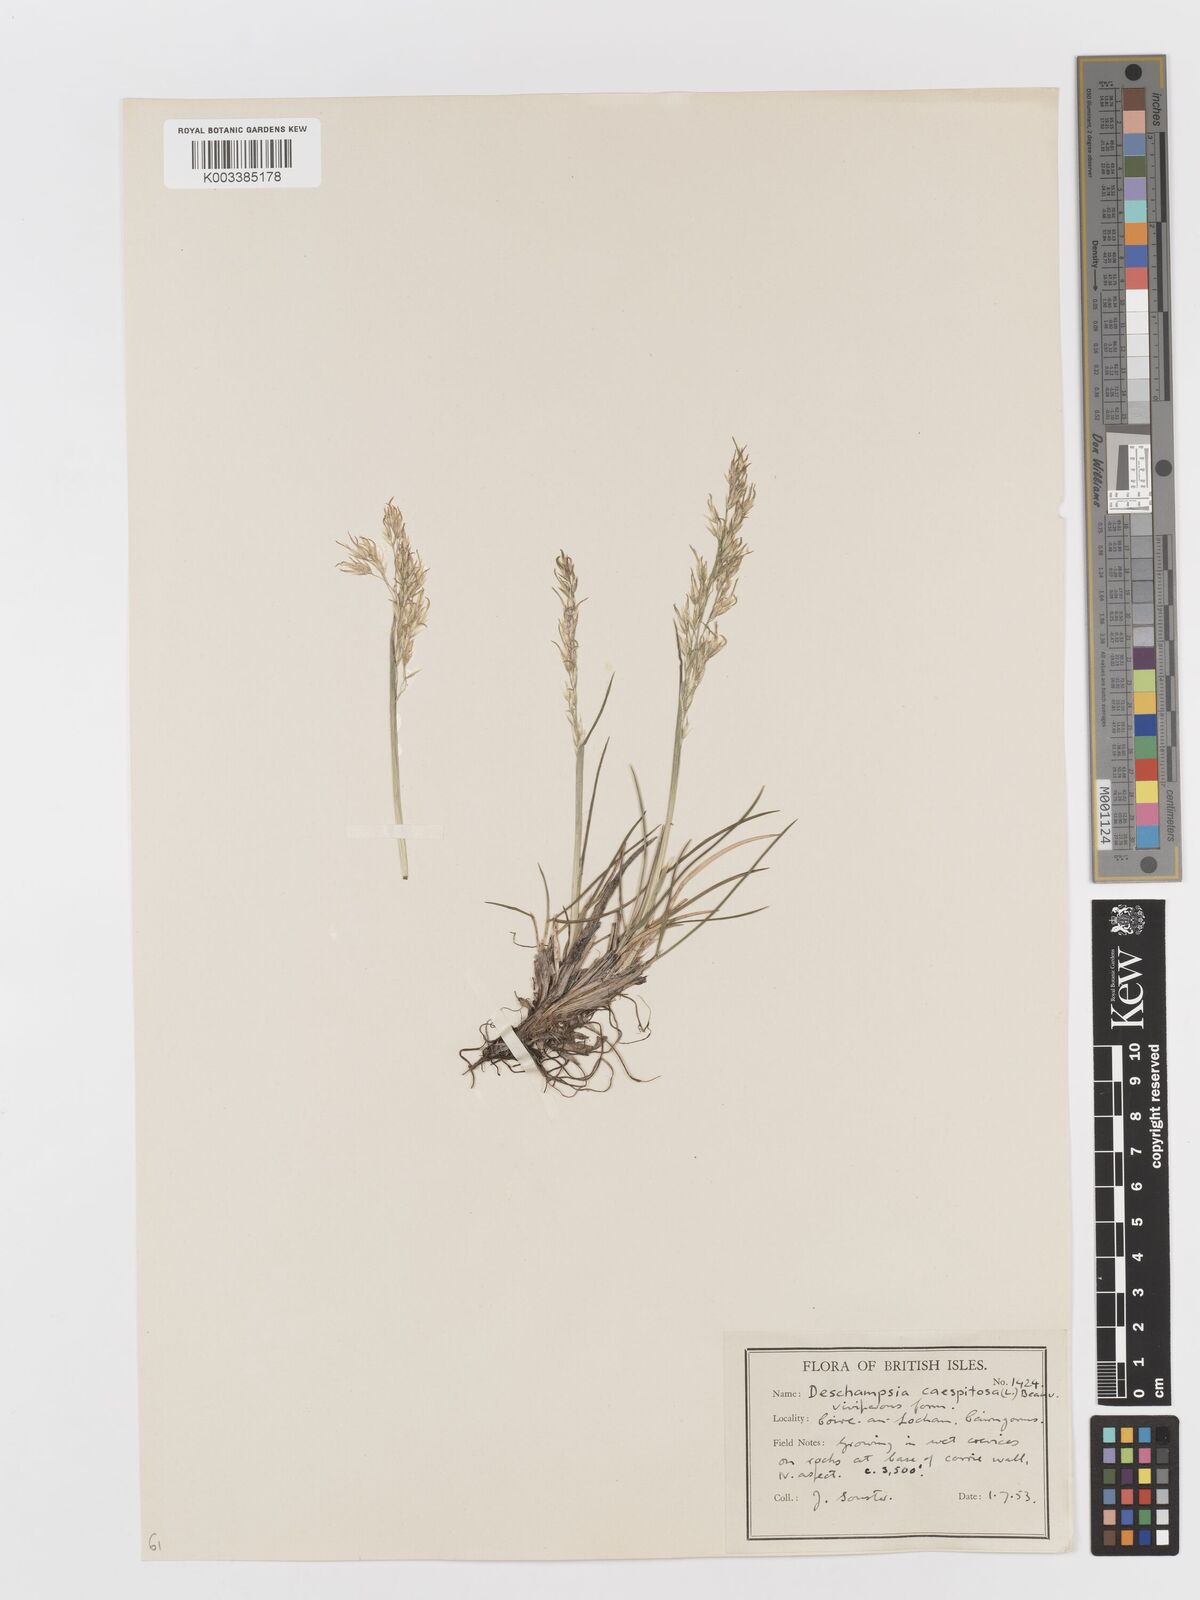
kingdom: Plantae
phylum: Tracheophyta
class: Liliopsida
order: Poales
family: Poaceae
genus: Deschampsia
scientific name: Deschampsia cespitosa
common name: Tufted hair-grass
